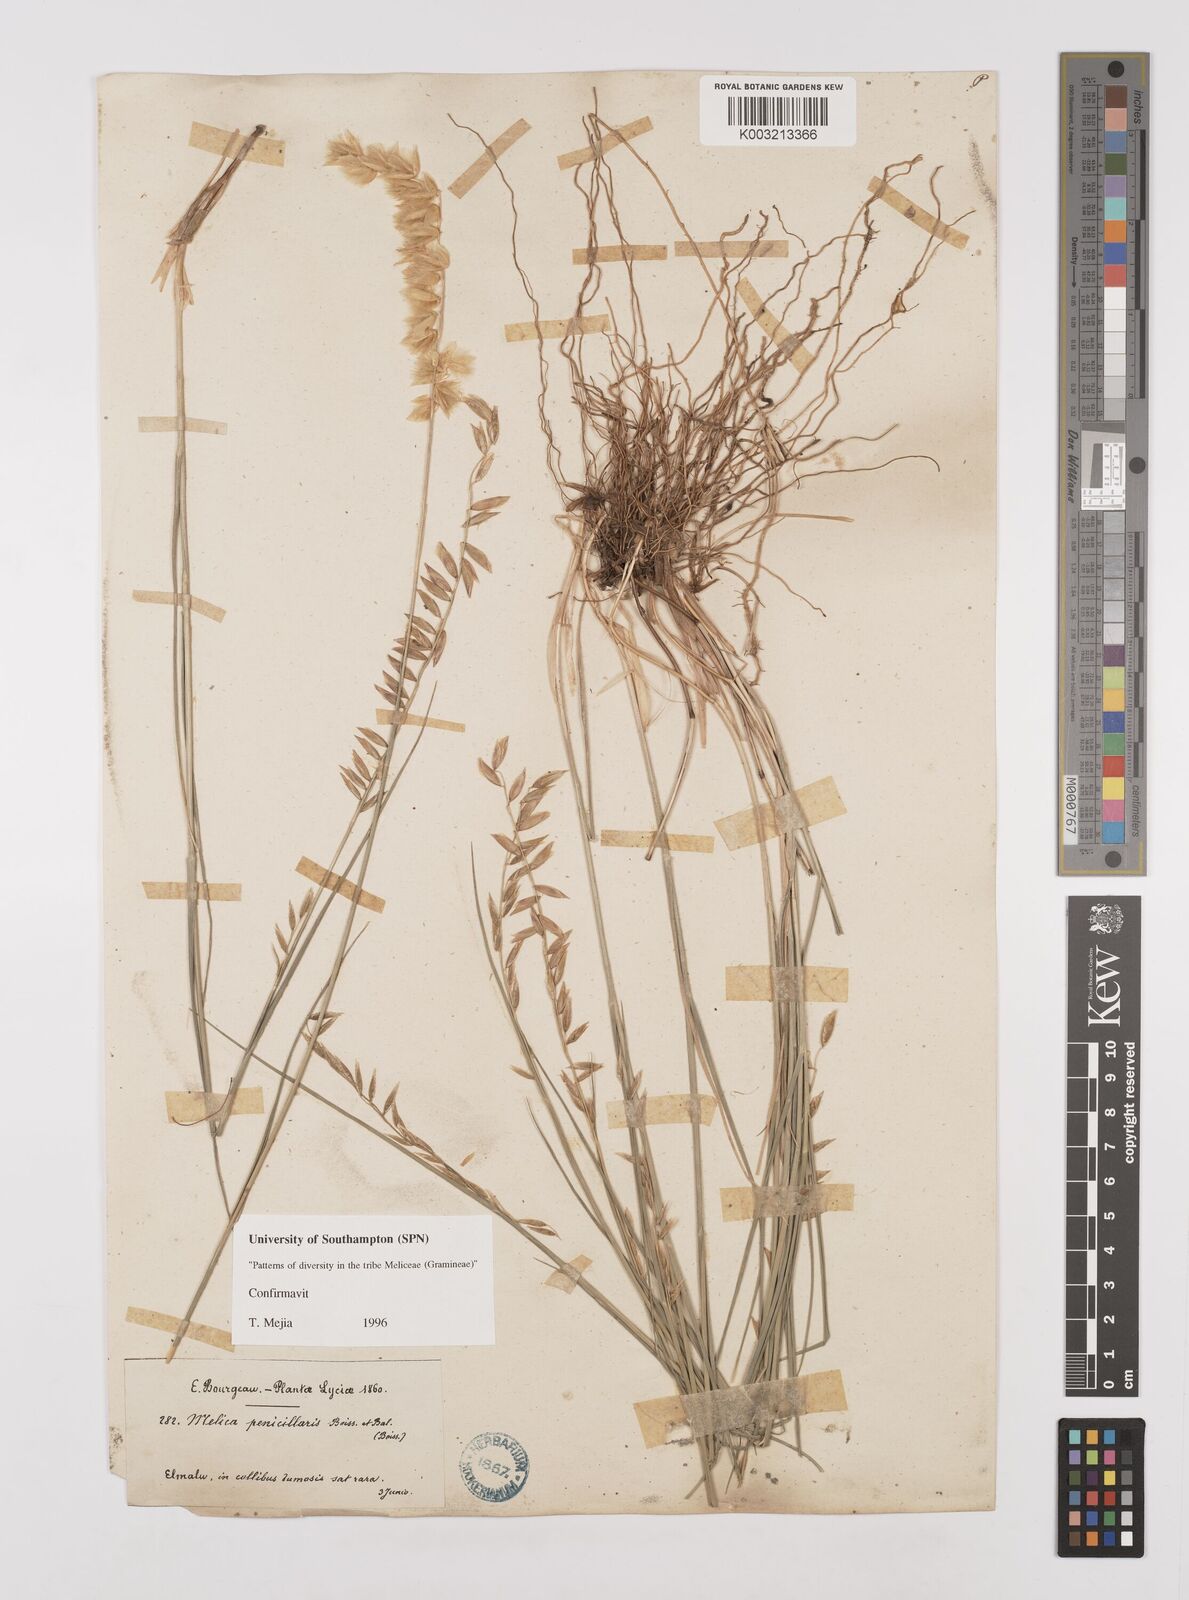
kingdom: Plantae
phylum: Tracheophyta
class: Liliopsida
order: Poales
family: Poaceae
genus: Melica
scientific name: Melica penicillaris
